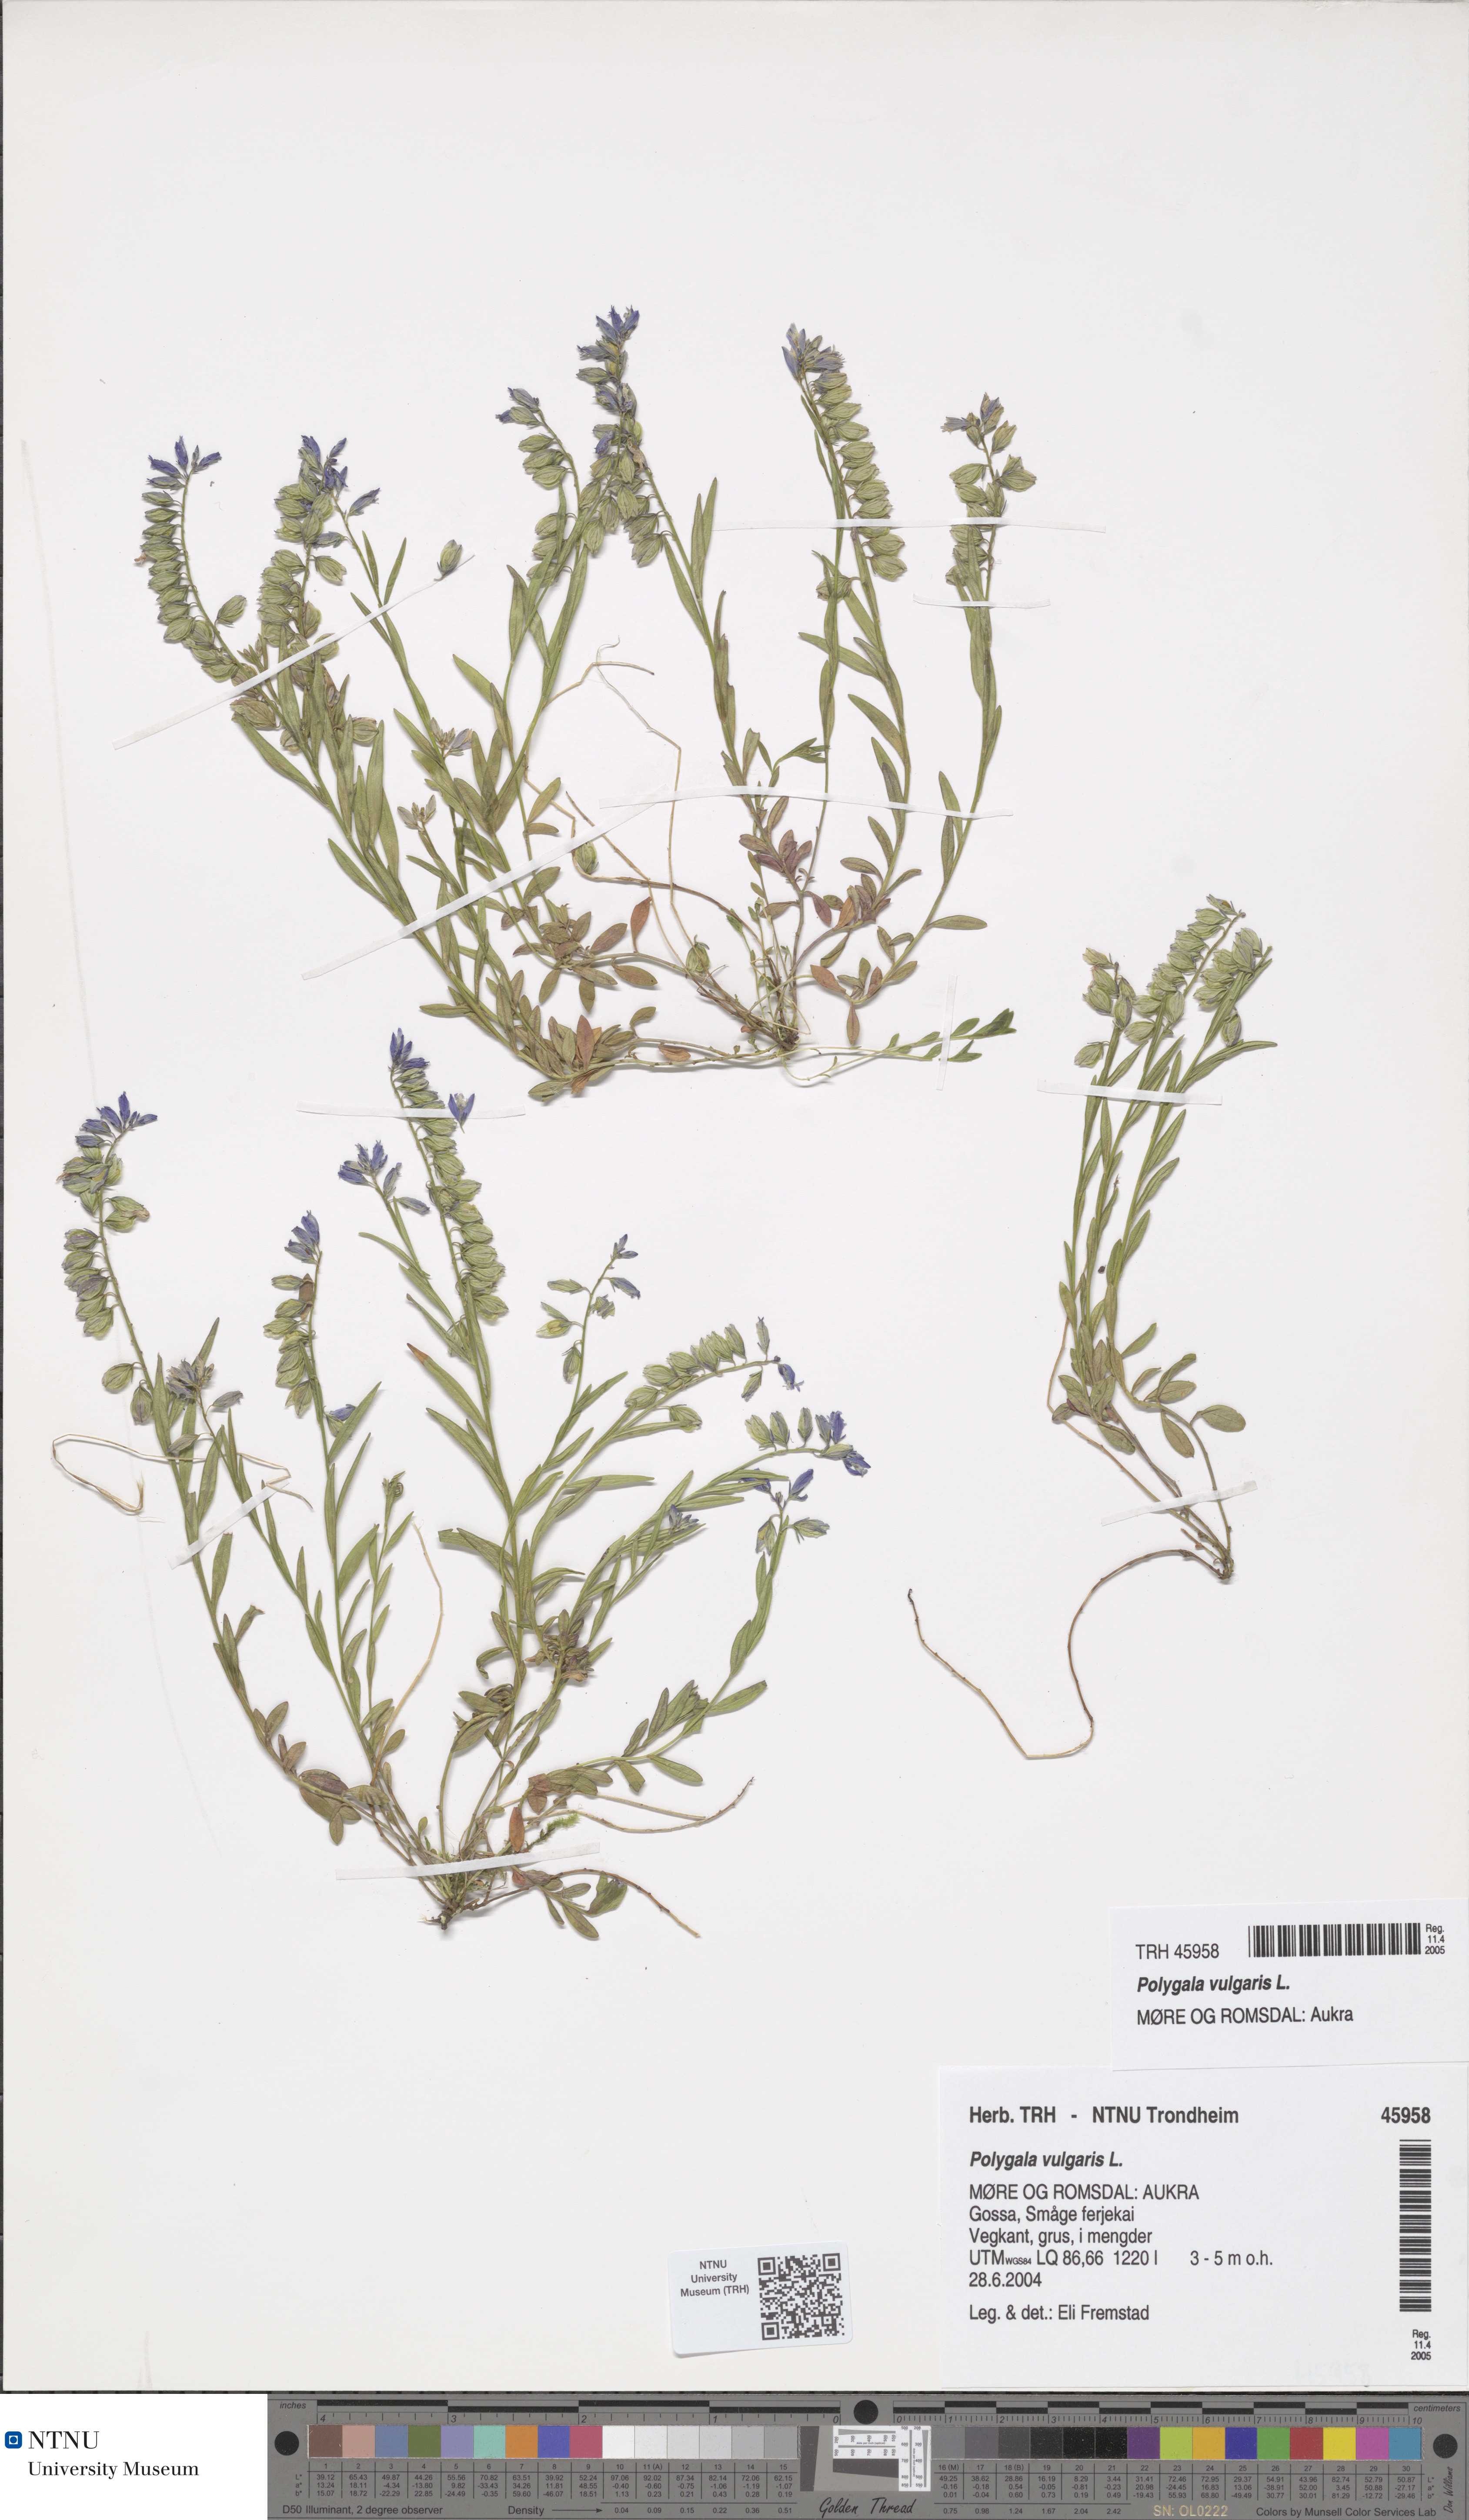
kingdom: Plantae
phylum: Tracheophyta
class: Magnoliopsida
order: Fabales
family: Polygalaceae
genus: Polygala
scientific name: Polygala vulgaris
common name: Common milkwort
